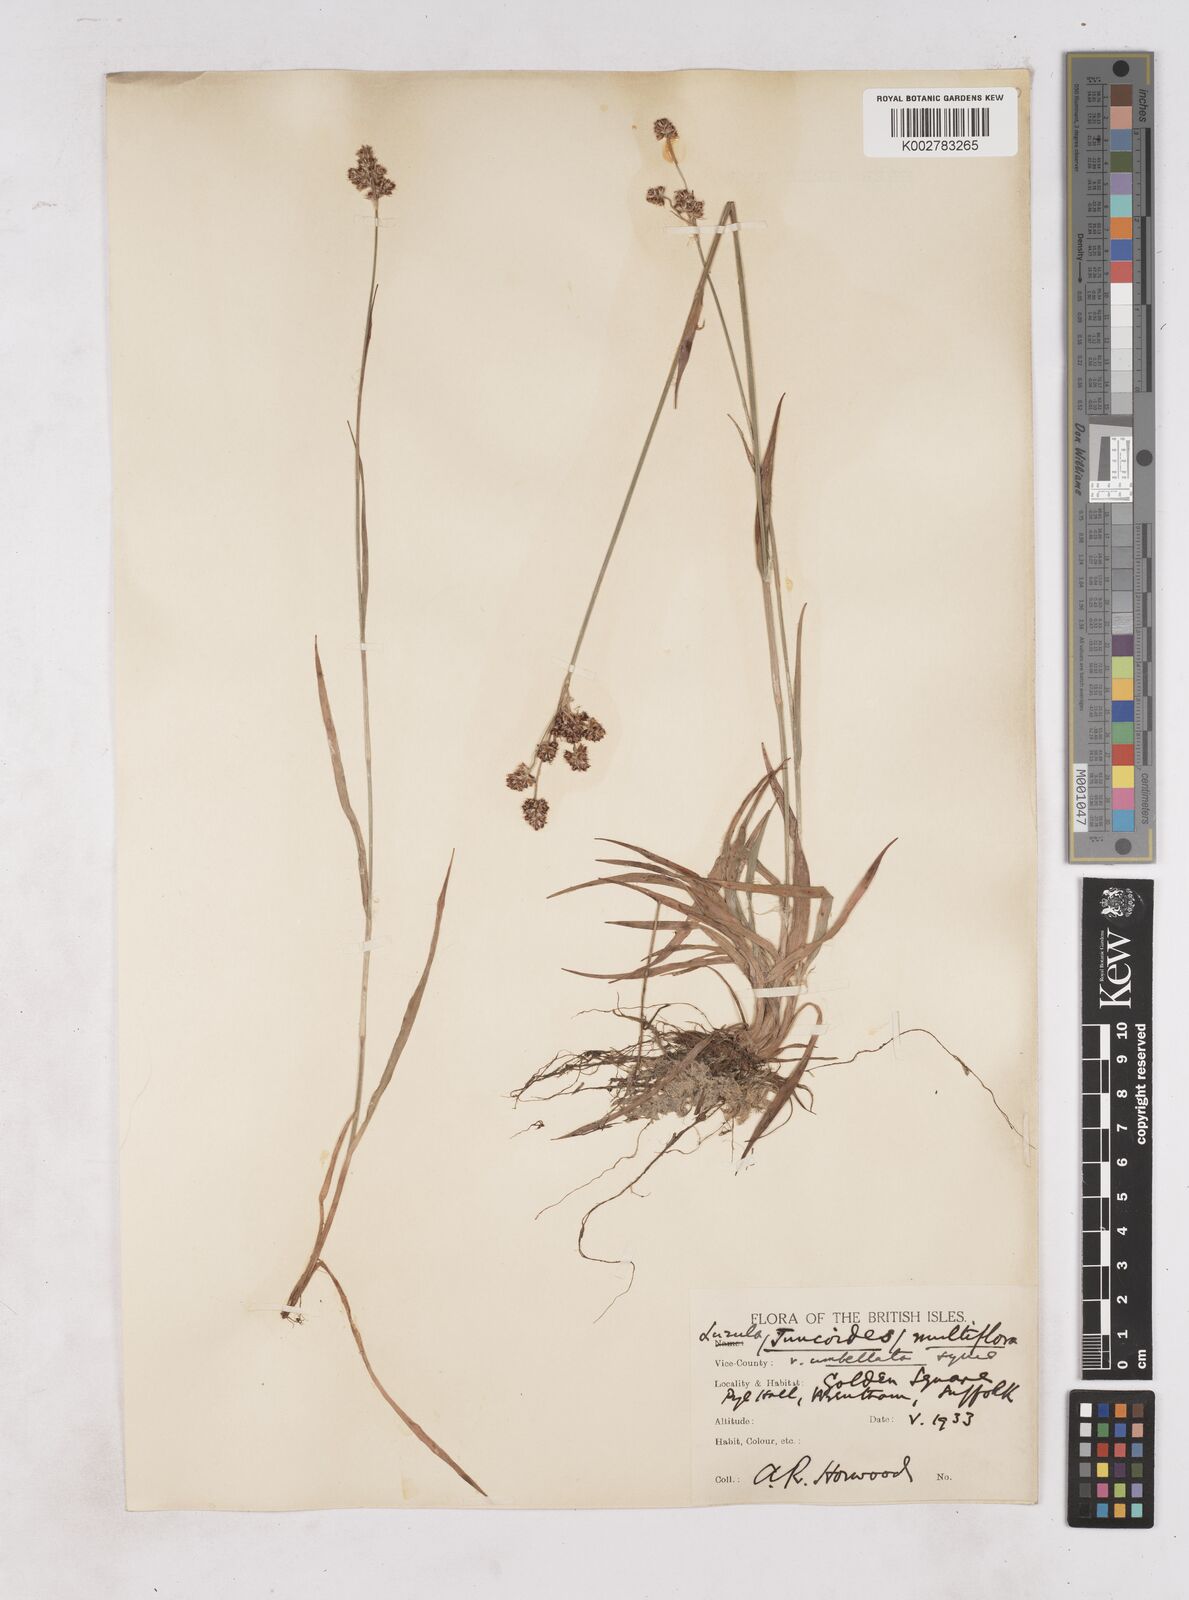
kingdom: Plantae
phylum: Tracheophyta
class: Liliopsida
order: Poales
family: Juncaceae
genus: Luzula
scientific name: Luzula multiflora
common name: Heath wood-rush
